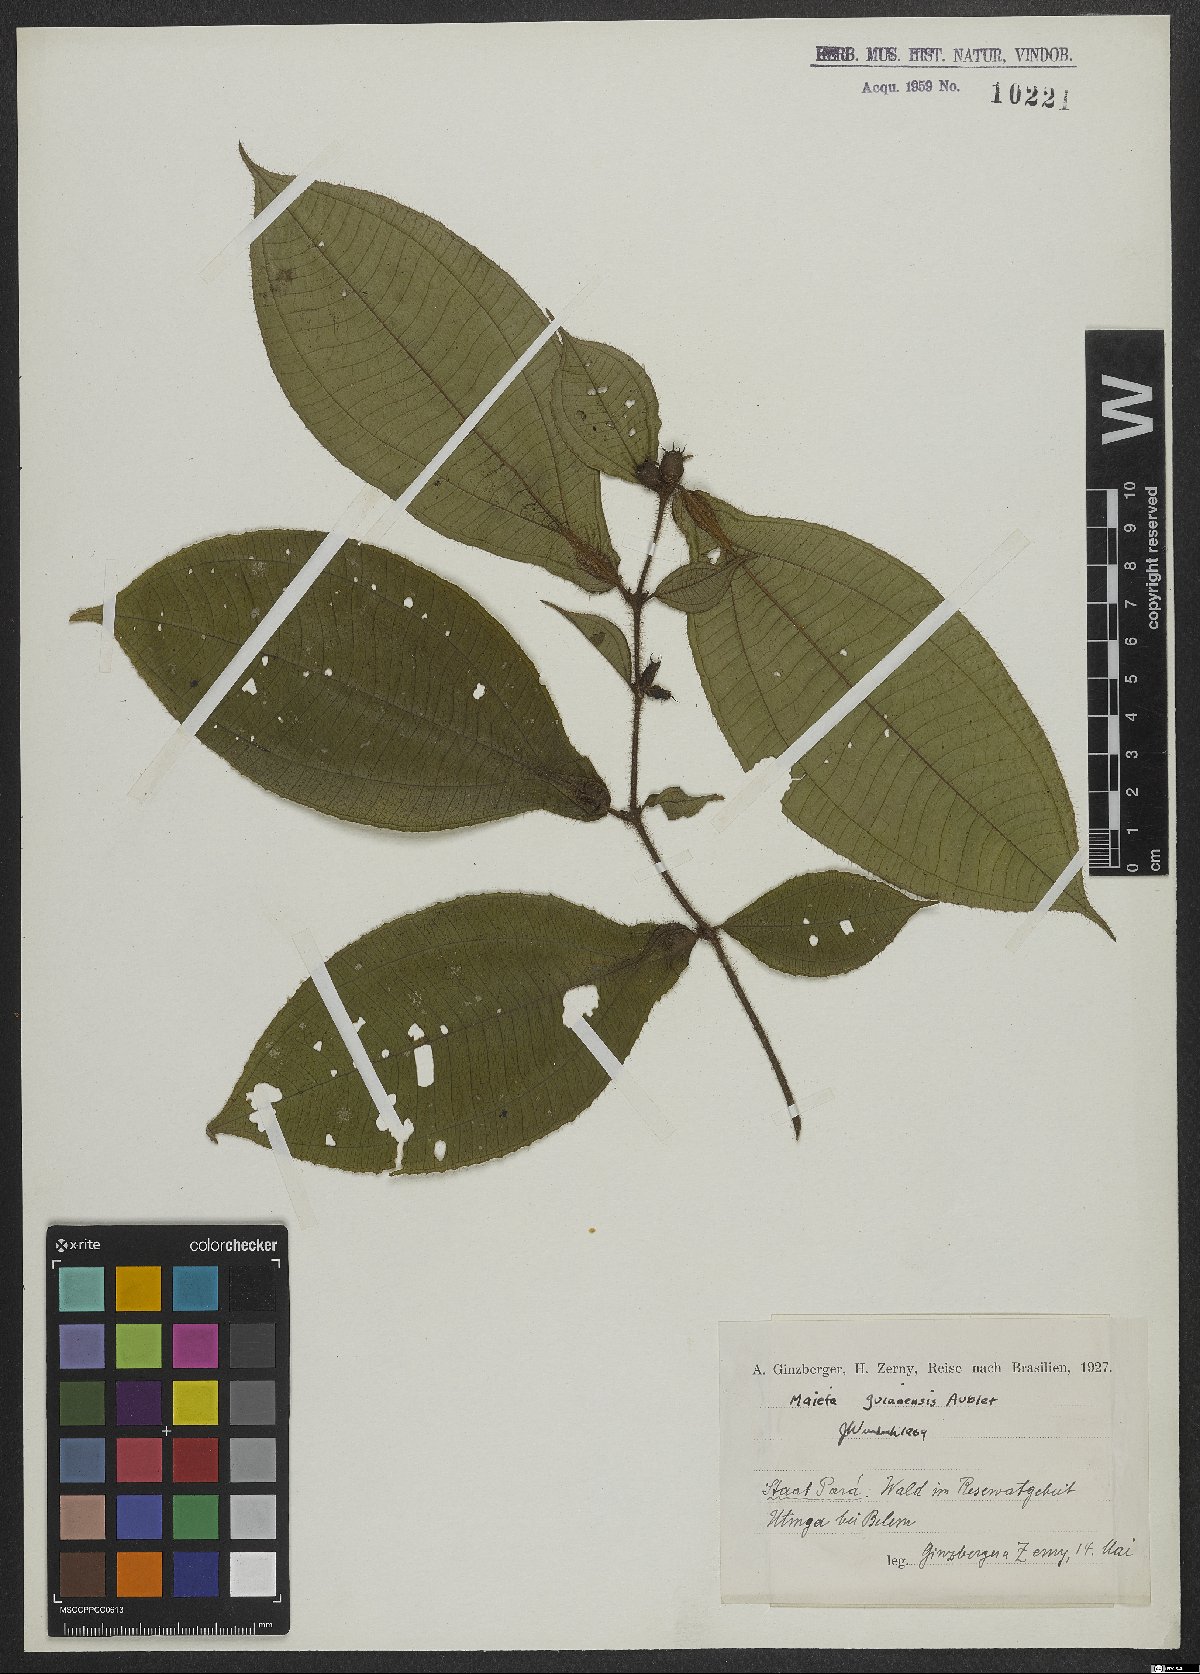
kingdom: Plantae
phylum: Tracheophyta
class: Magnoliopsida
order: Myrtales
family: Melastomataceae
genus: Miconia
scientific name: Miconia mayeta
